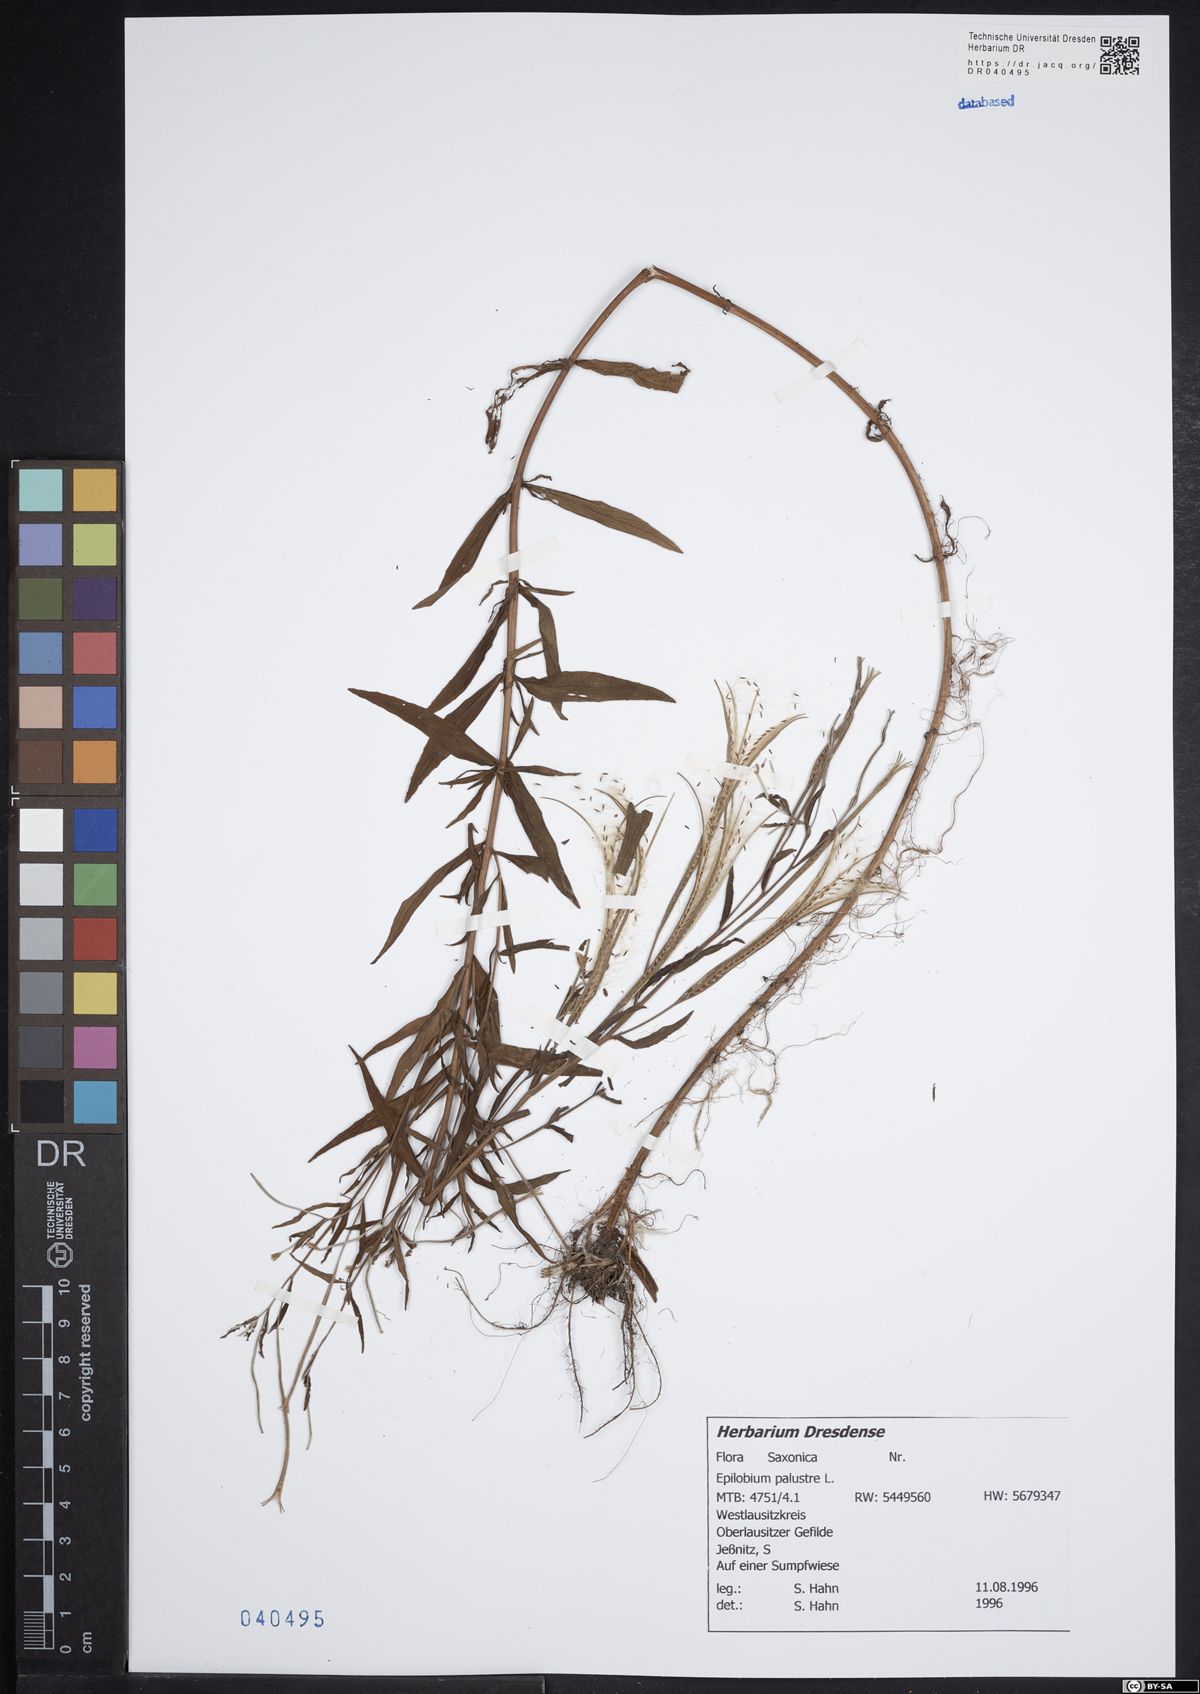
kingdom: Plantae
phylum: Tracheophyta
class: Magnoliopsida
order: Myrtales
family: Onagraceae
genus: Epilobium
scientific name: Epilobium palustre
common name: Marsh willowherb
